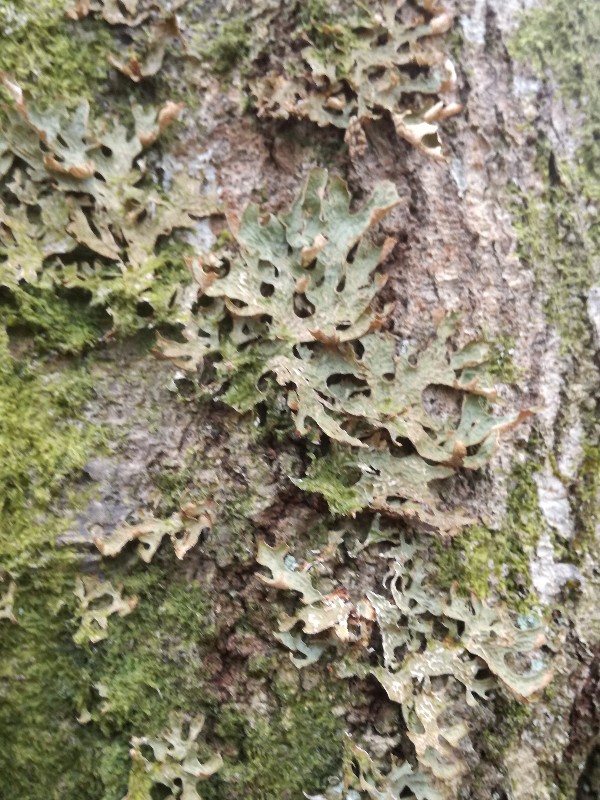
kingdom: Fungi
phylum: Ascomycota
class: Lecanoromycetes
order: Peltigerales
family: Lobariaceae
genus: Lobaria
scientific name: Lobaria pulmonaria
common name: almindelig lungelav
